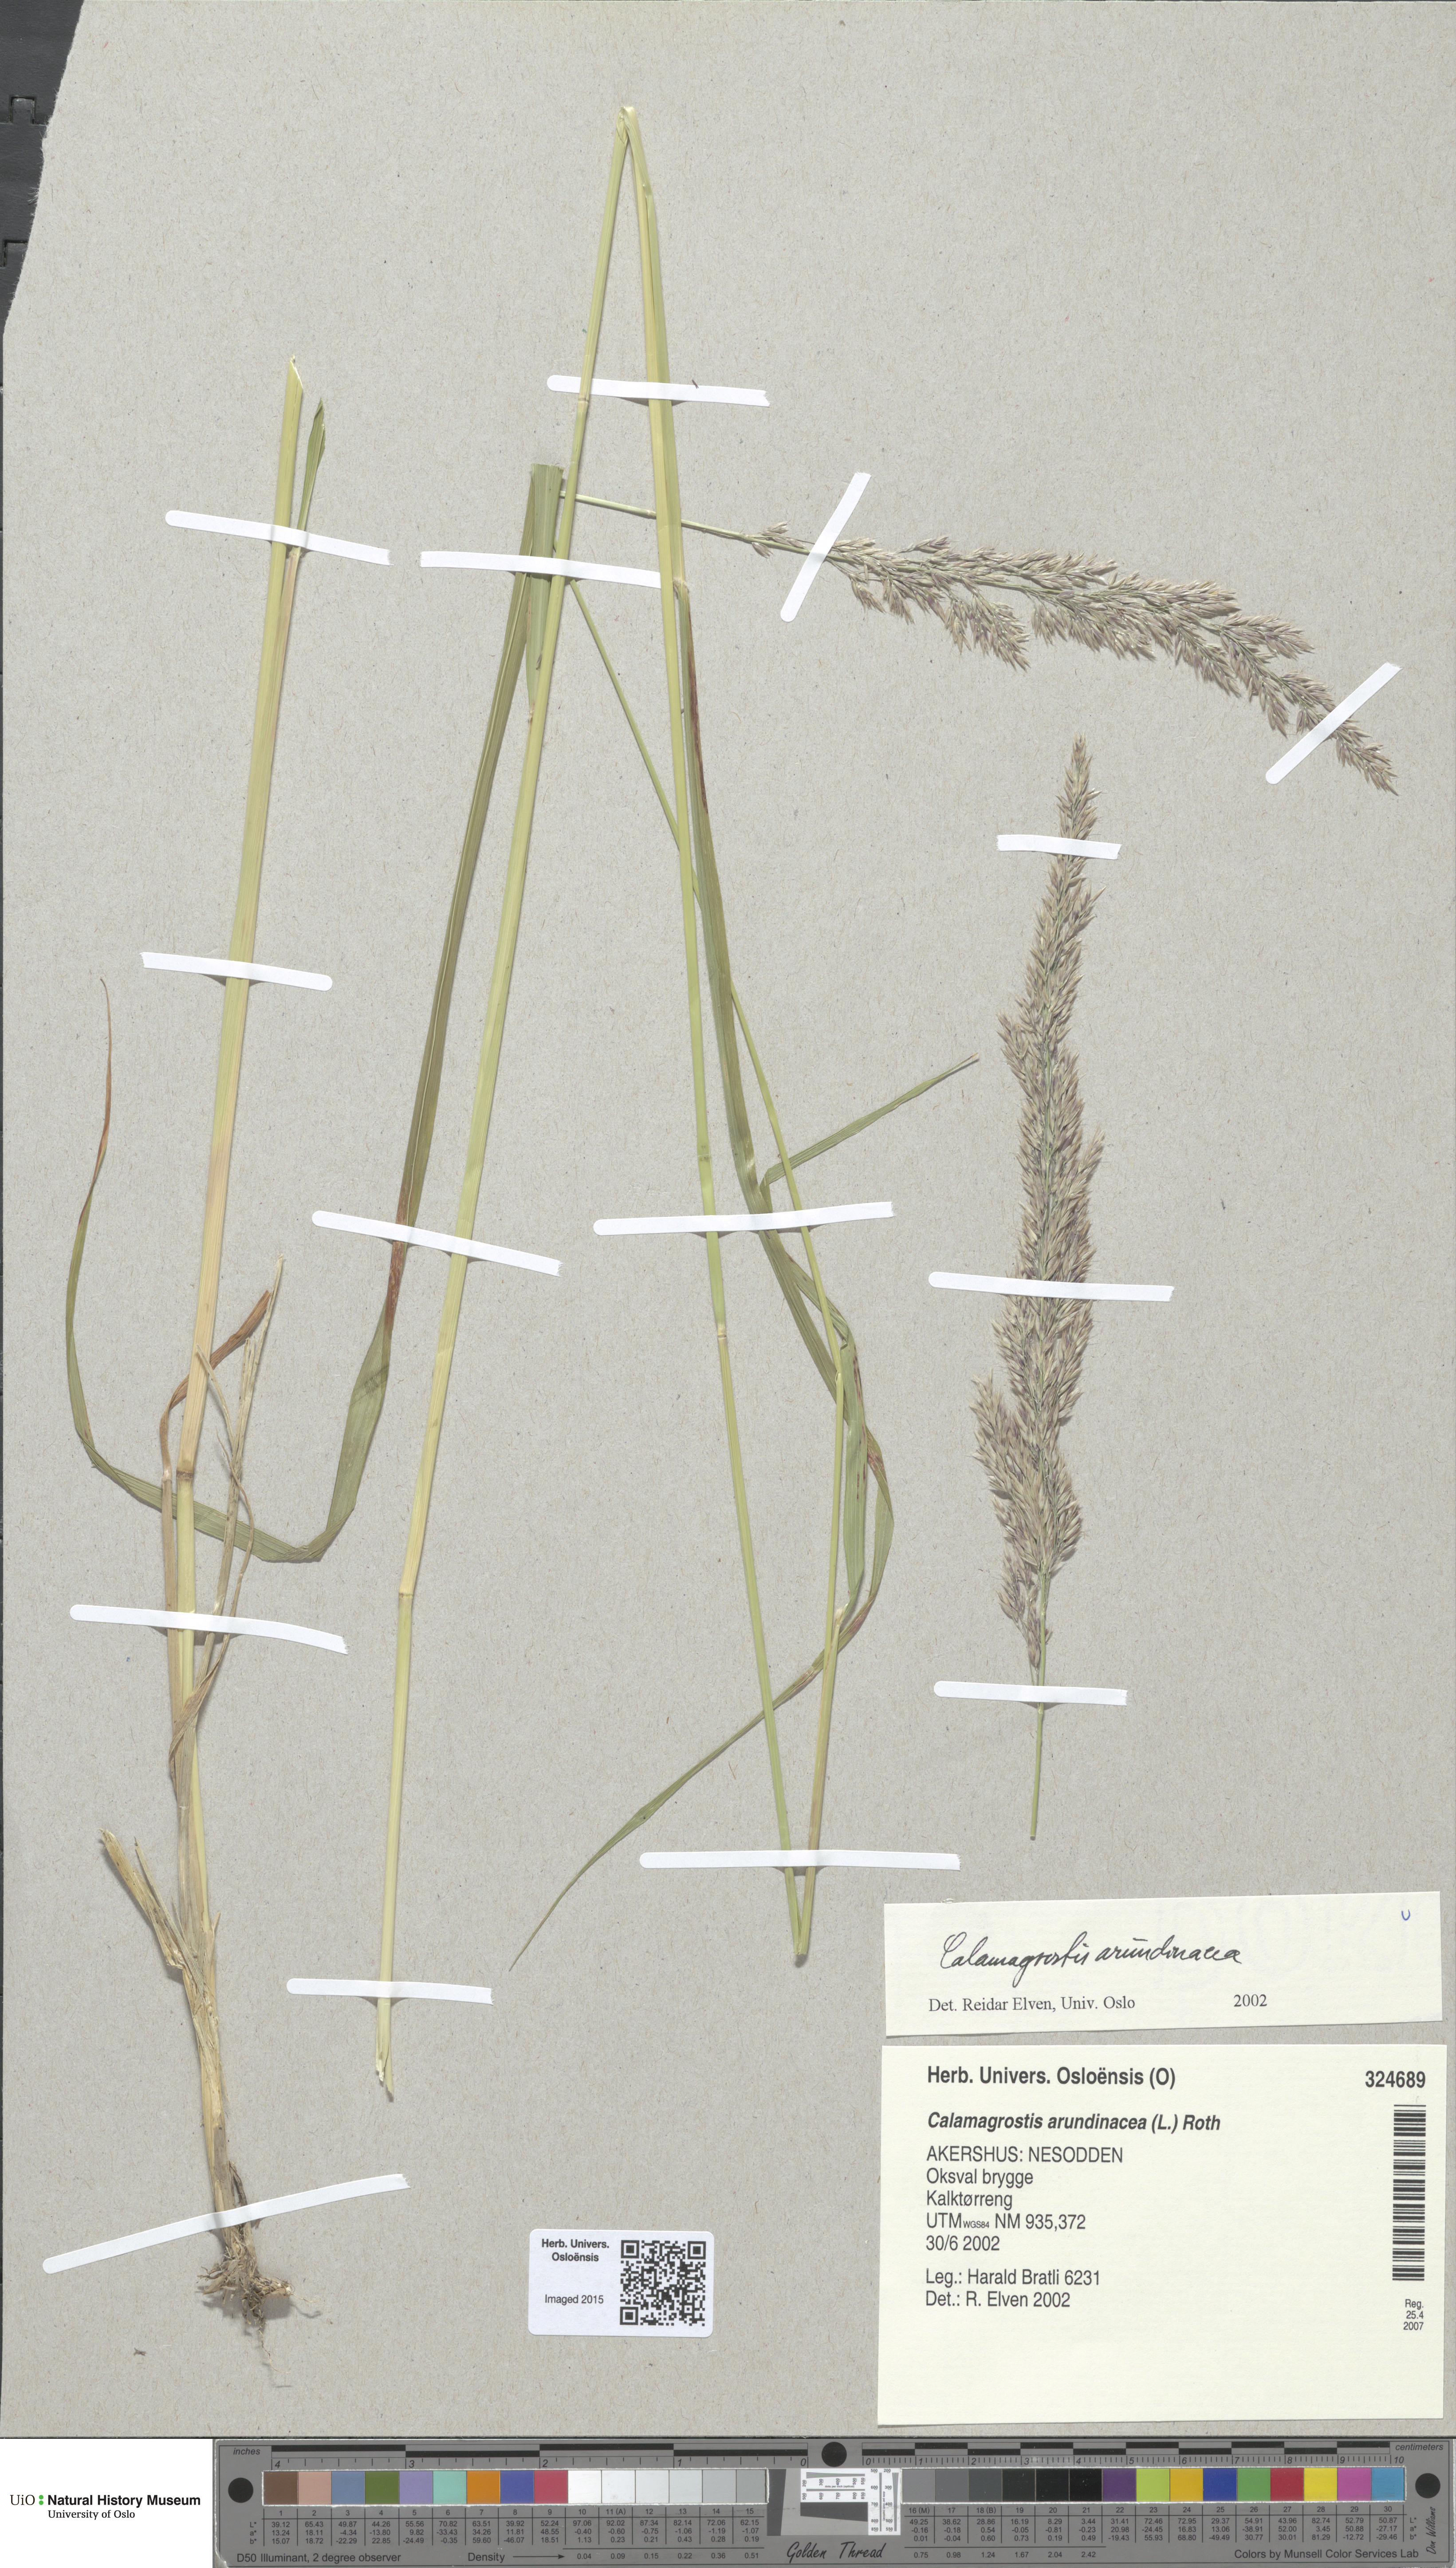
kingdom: Plantae
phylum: Tracheophyta
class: Liliopsida
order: Poales
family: Poaceae
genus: Calamagrostis
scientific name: Calamagrostis arundinacea
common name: Metskastik
